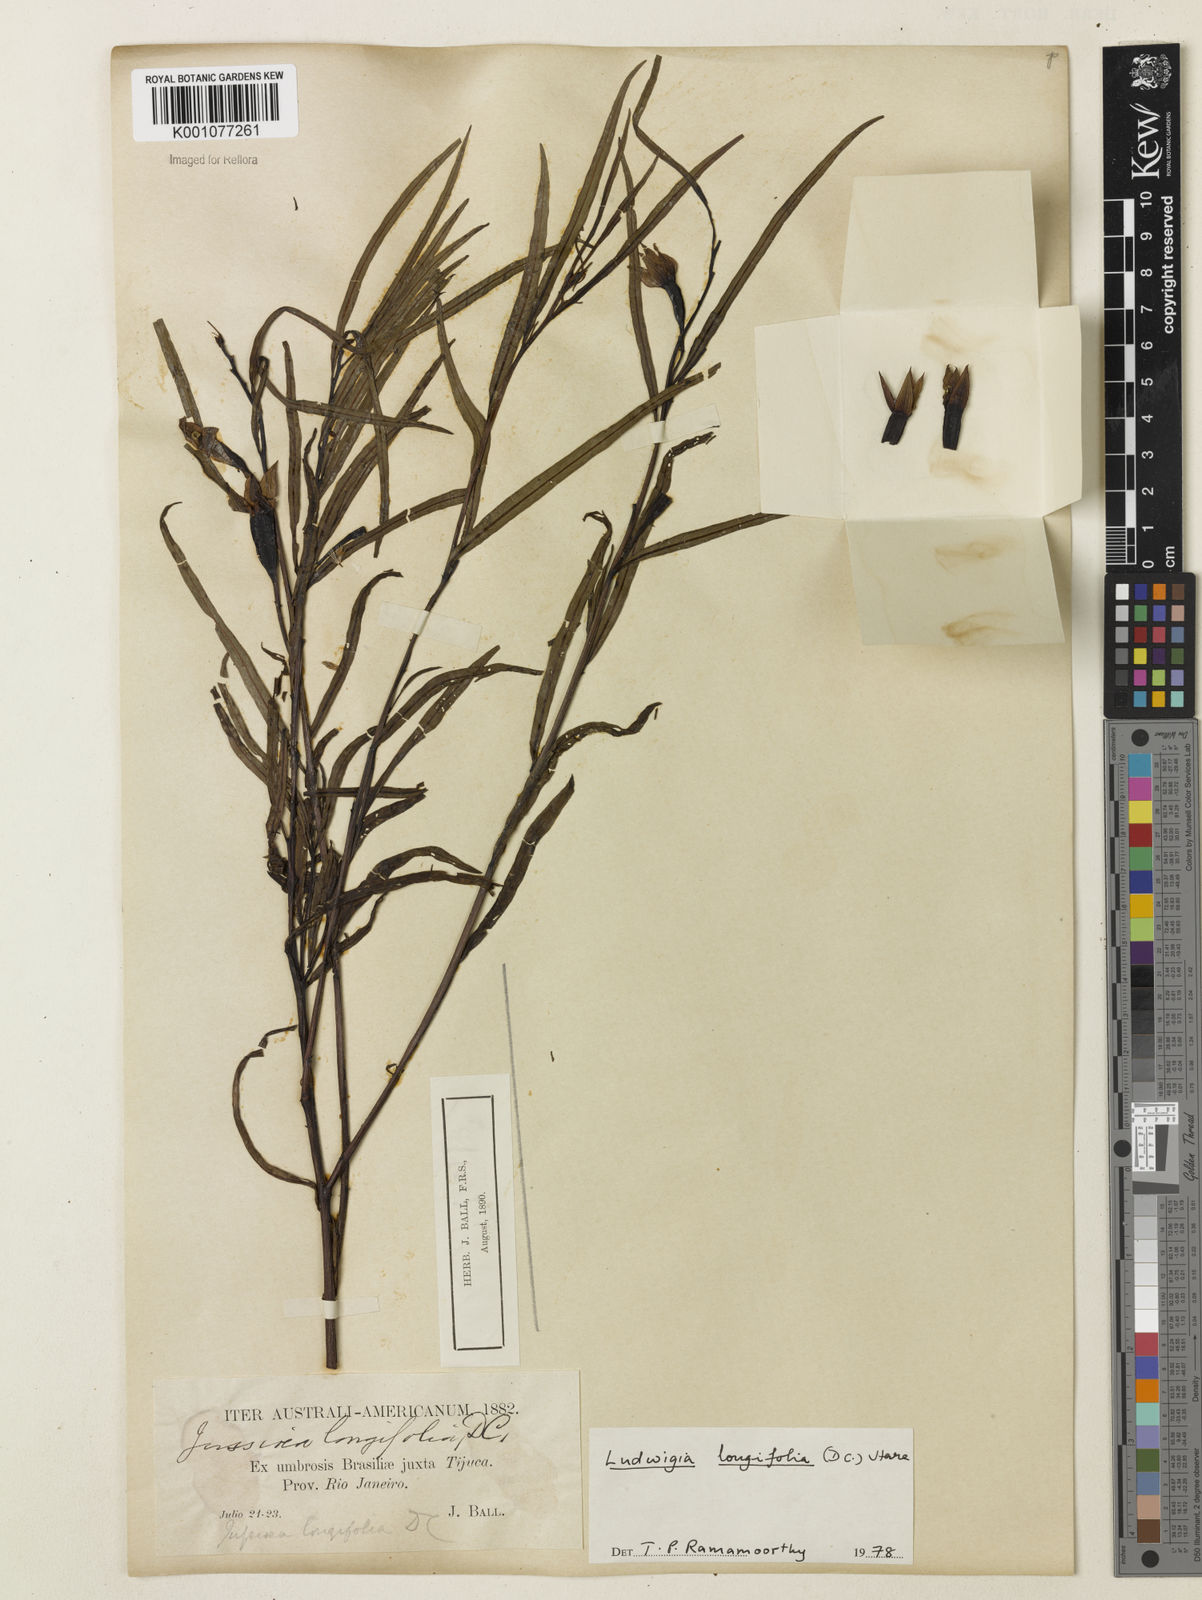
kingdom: Plantae
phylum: Tracheophyta
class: Magnoliopsida
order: Myrtales
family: Onagraceae
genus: Ludwigia
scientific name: Ludwigia longifolia
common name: Longleaf primrose-willow
